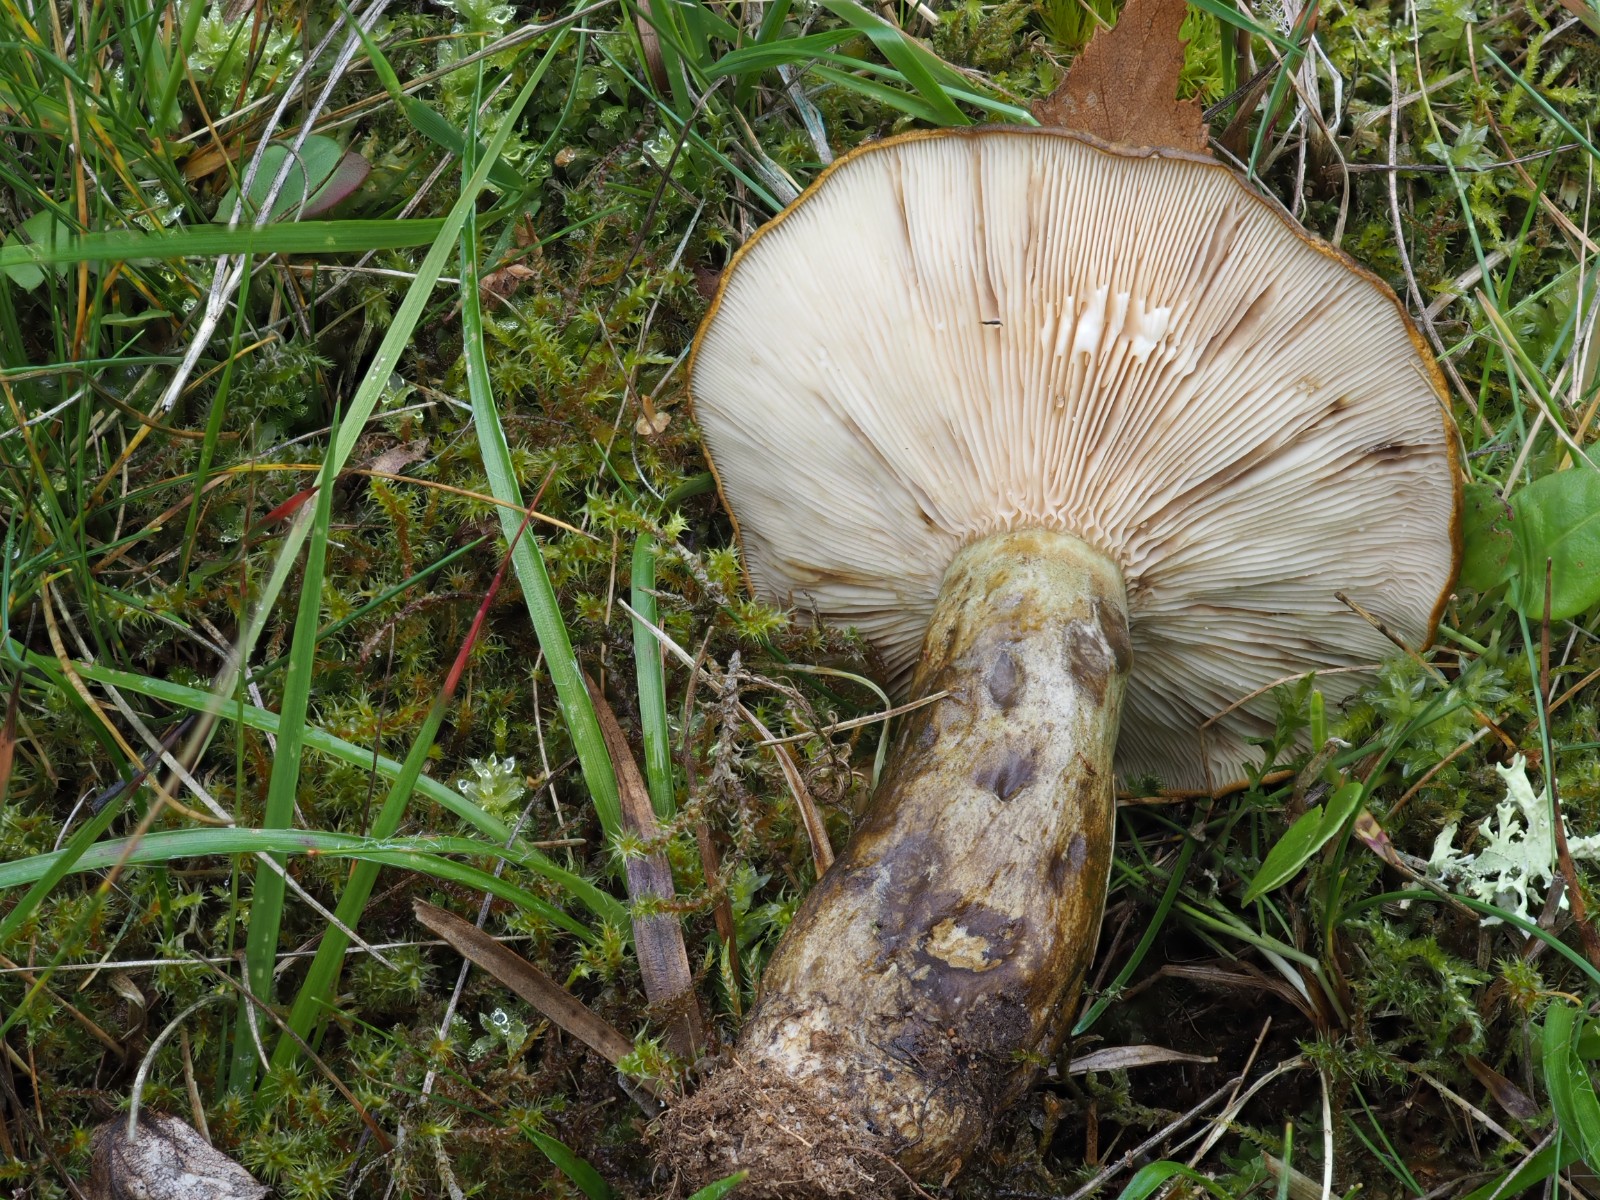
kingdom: Fungi
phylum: Basidiomycota
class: Agaricomycetes
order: Russulales
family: Russulaceae
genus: Lactarius
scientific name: Lactarius necator
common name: manddraber-mælkehat
